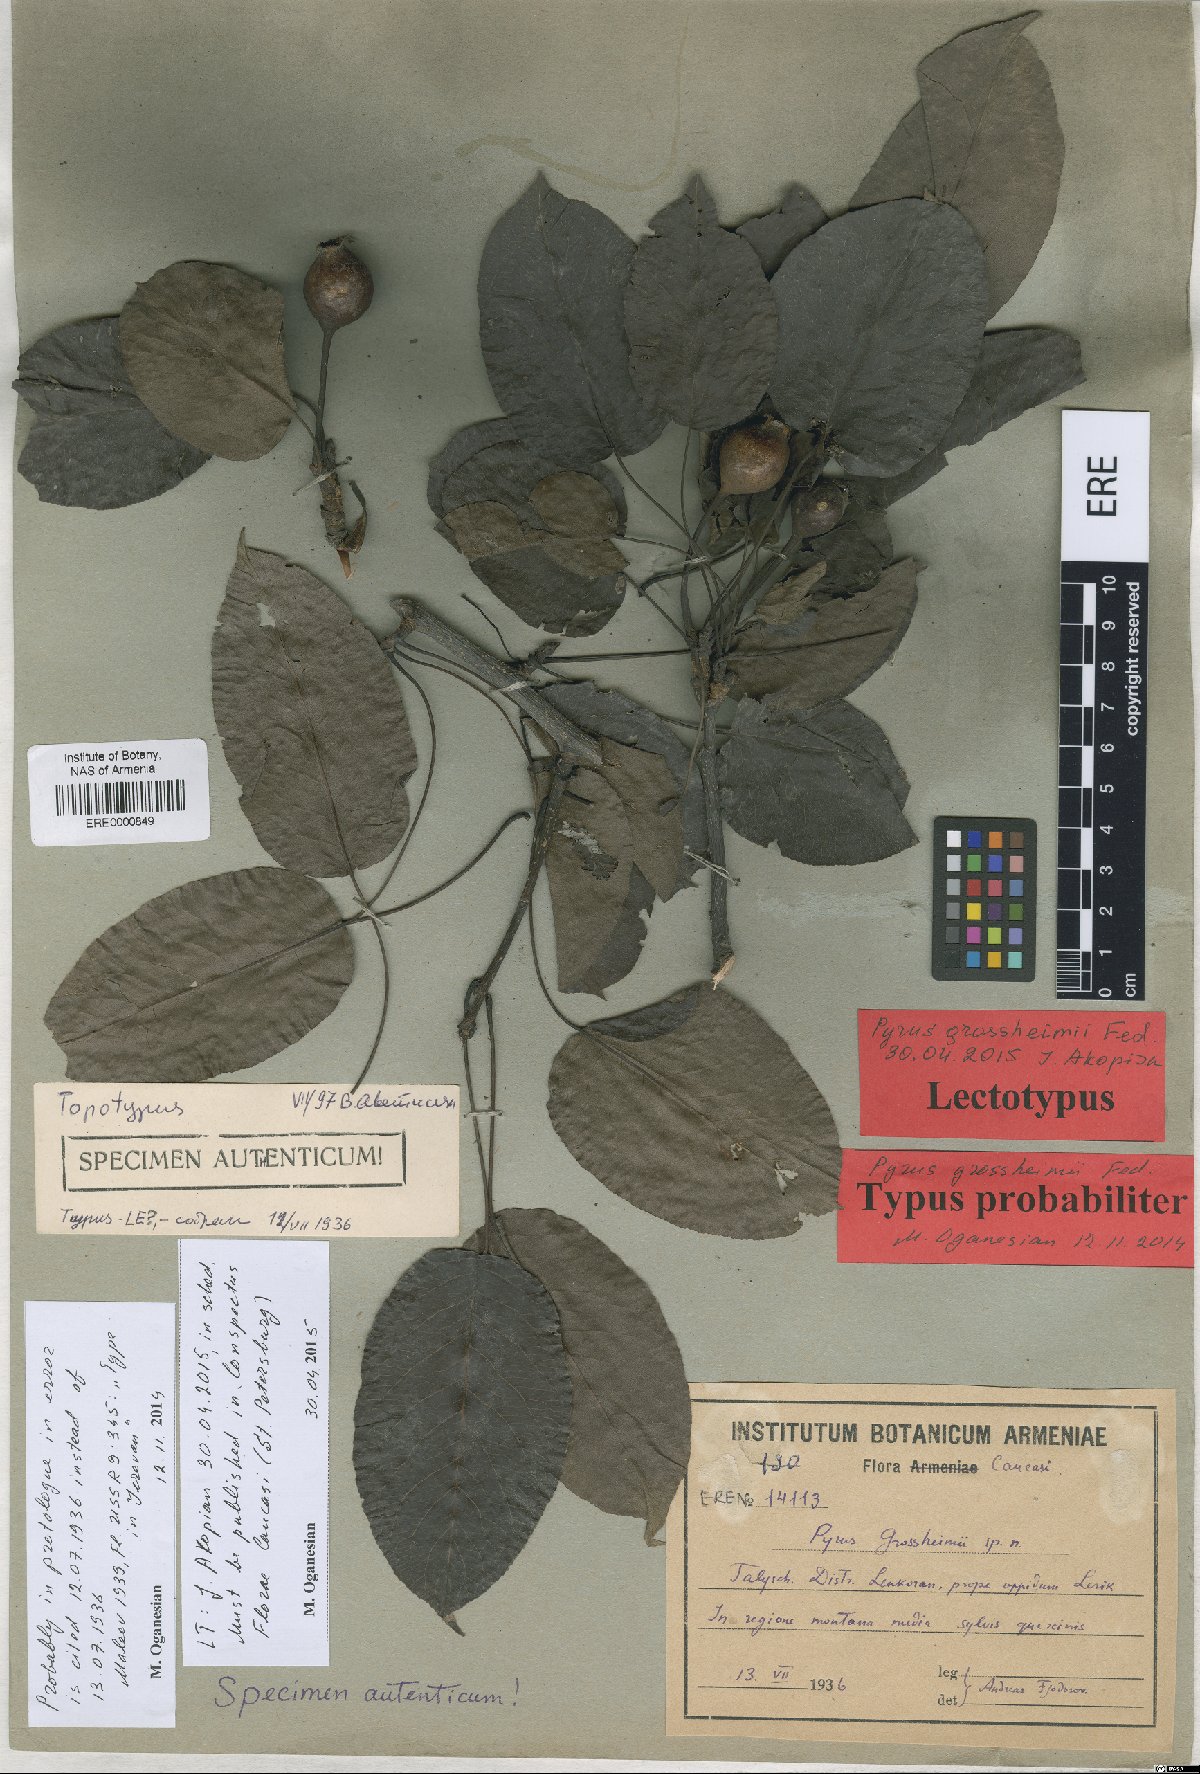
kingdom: Plantae
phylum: Tracheophyta
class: Magnoliopsida
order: Rosales
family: Rosaceae
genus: Pyrus
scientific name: Pyrus grossheimii
